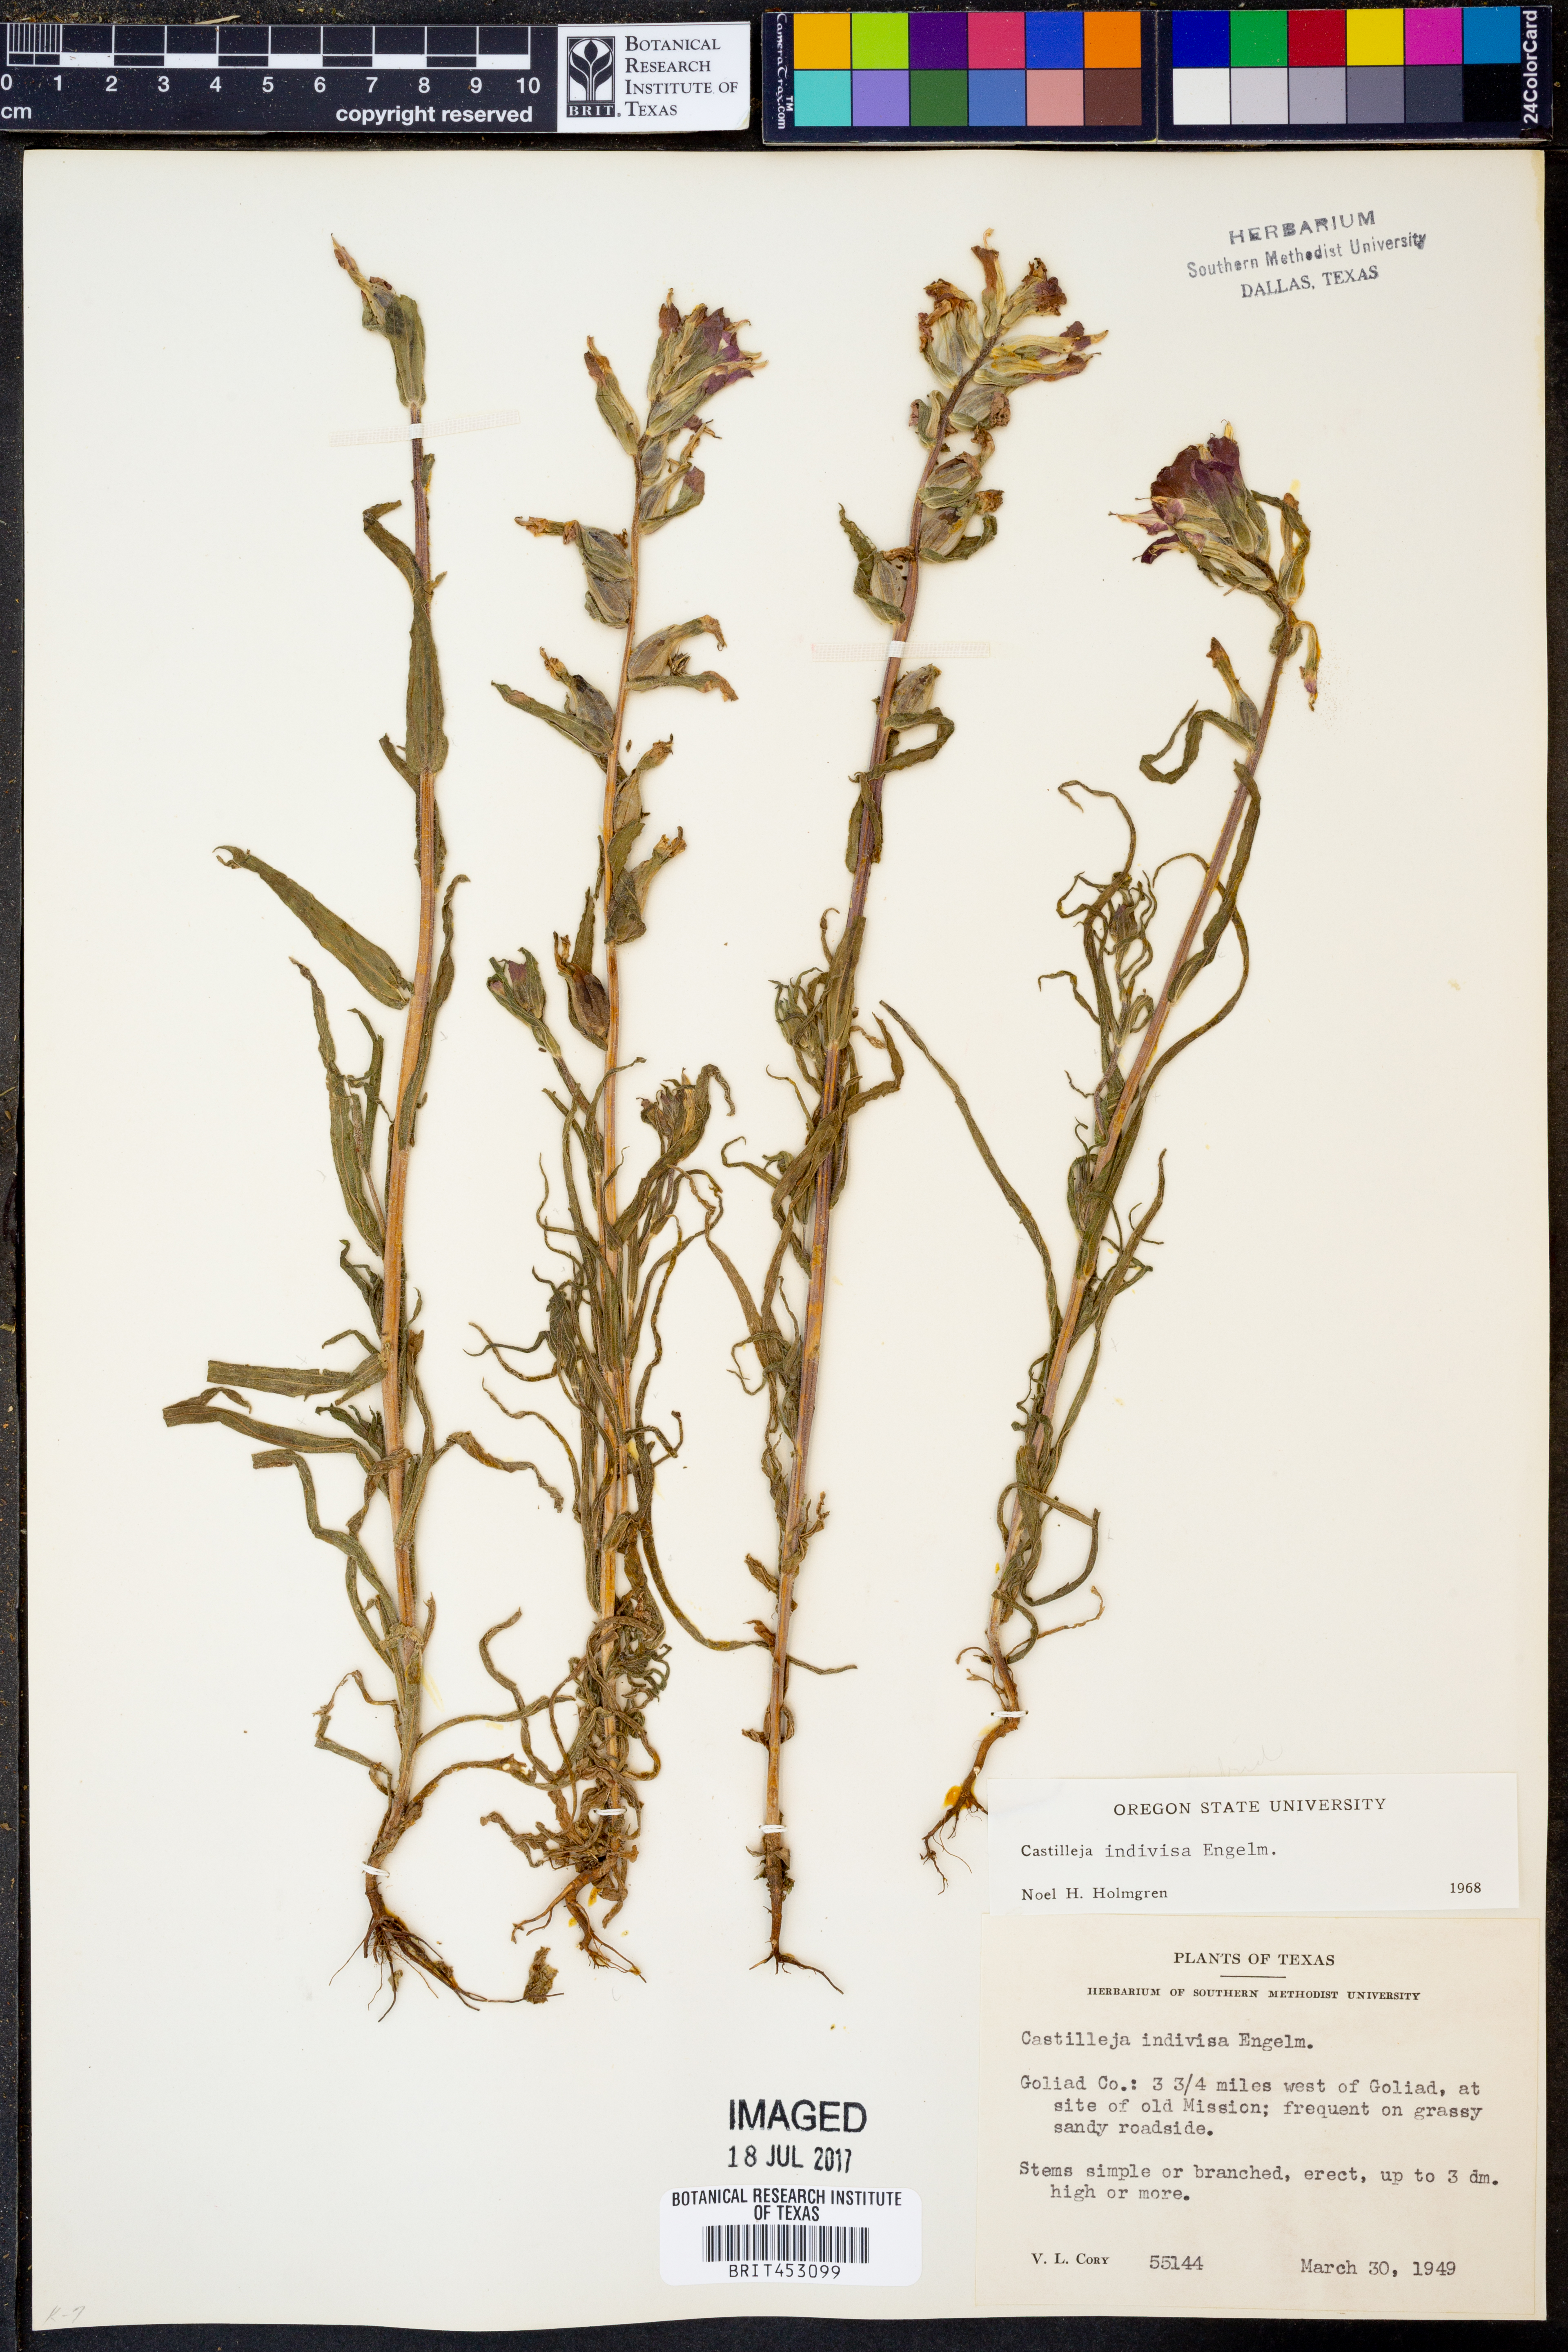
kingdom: Plantae
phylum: Tracheophyta
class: Magnoliopsida
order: Lamiales
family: Orobanchaceae
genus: Castilleja
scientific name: Castilleja indivisa
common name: Texas paintbrush
